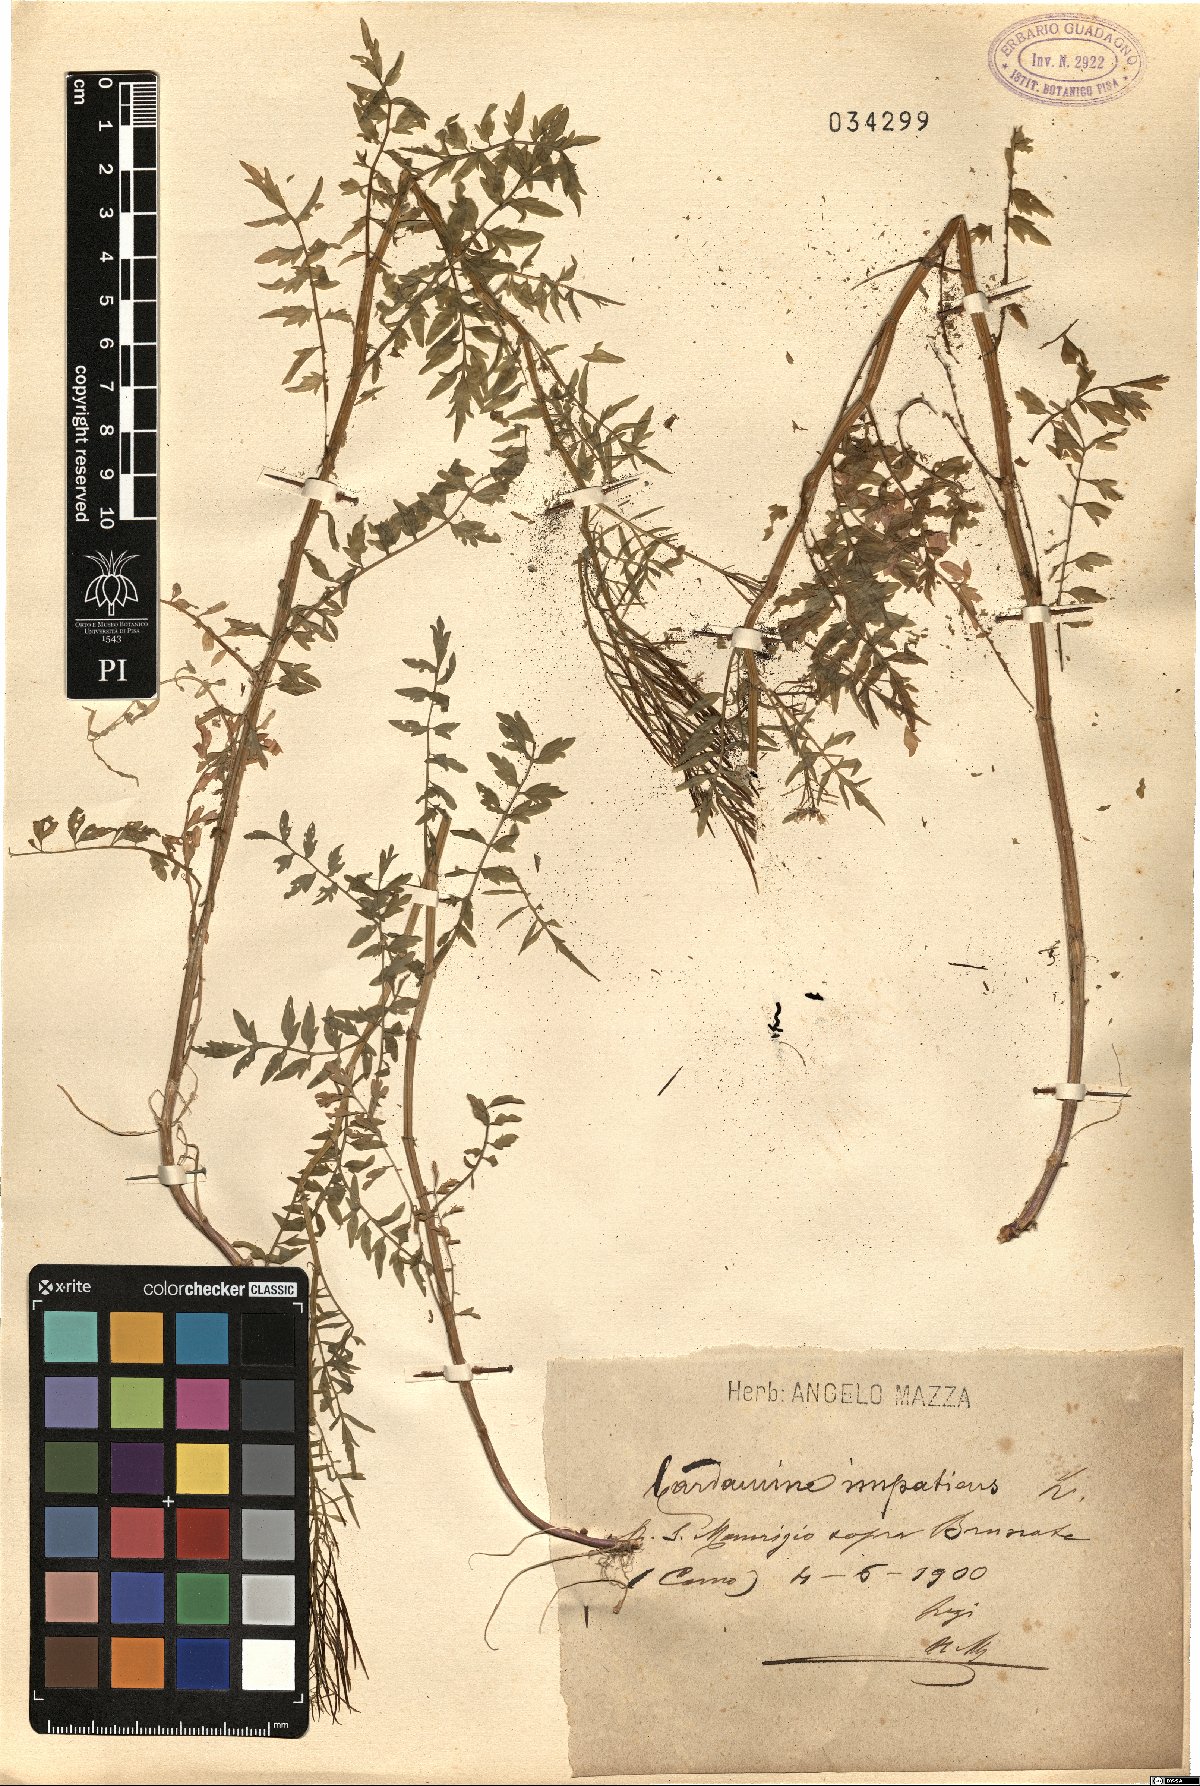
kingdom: Plantae
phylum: Tracheophyta
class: Magnoliopsida
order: Brassicales
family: Brassicaceae
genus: Cardamine
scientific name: Cardamine impatiens
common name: Narrow-leaved bitter-cress
